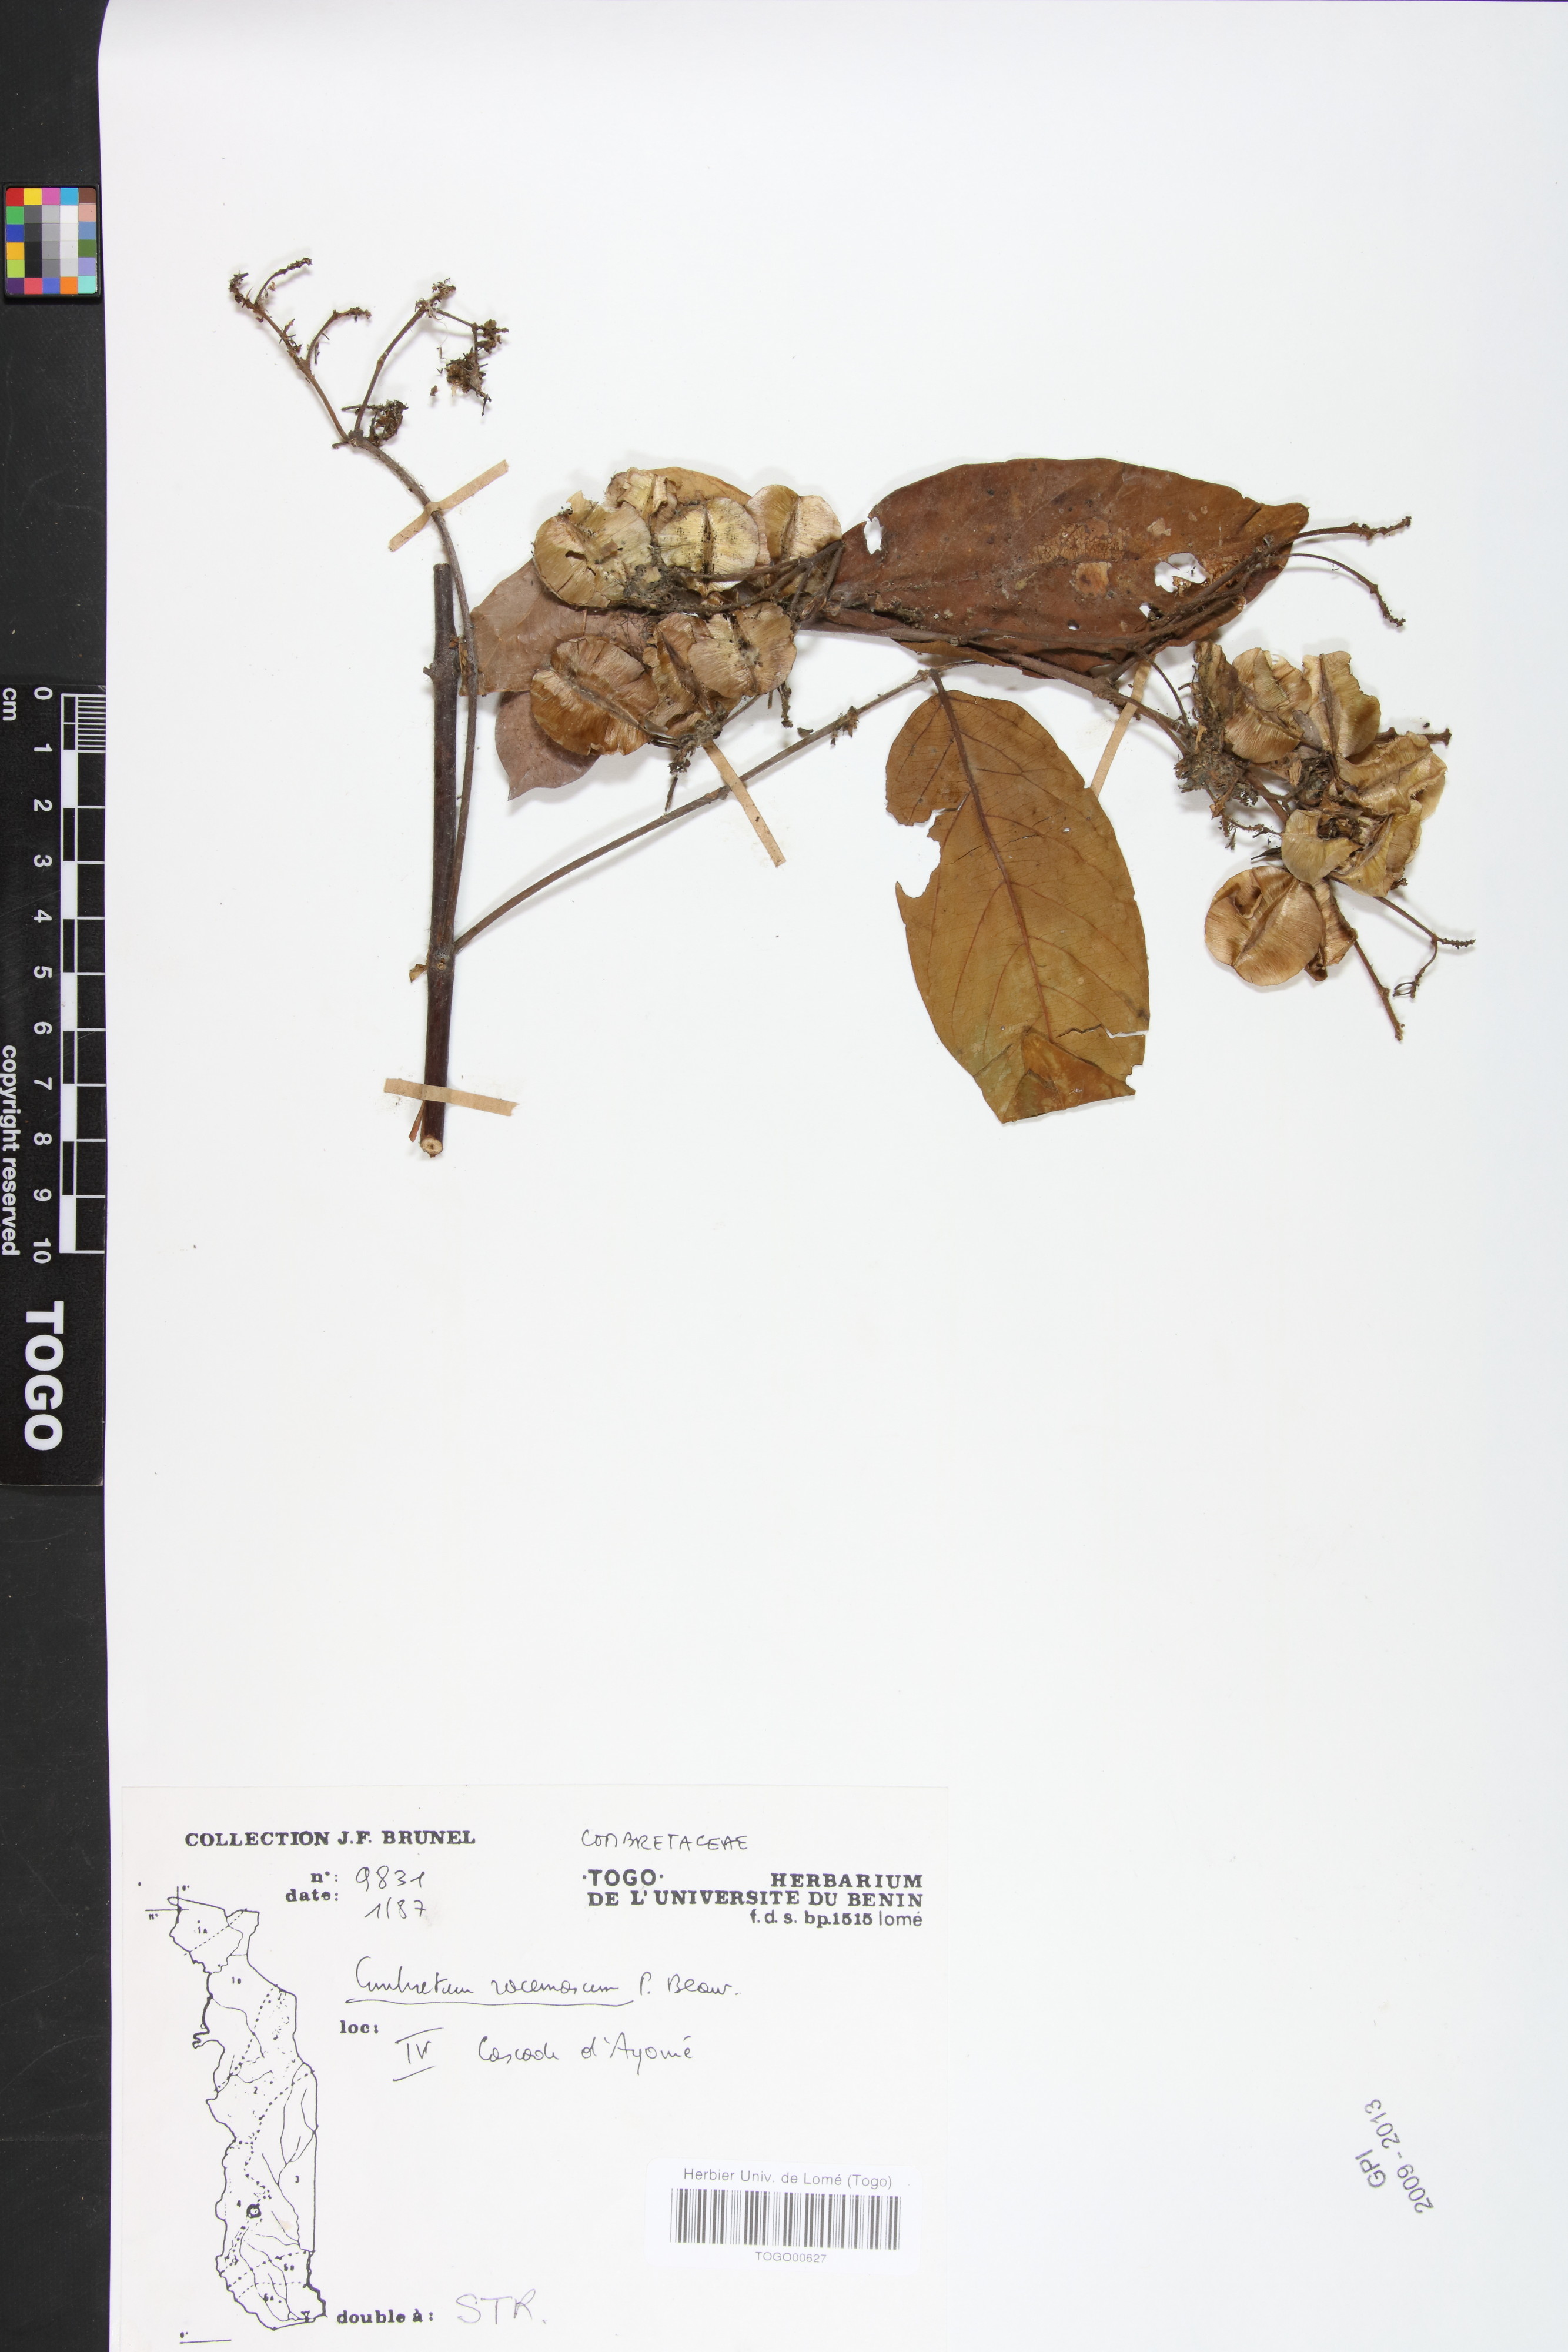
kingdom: Plantae
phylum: Tracheophyta
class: Magnoliopsida
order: Myrtales
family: Combretaceae
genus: Combretum
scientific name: Combretum racemosum
